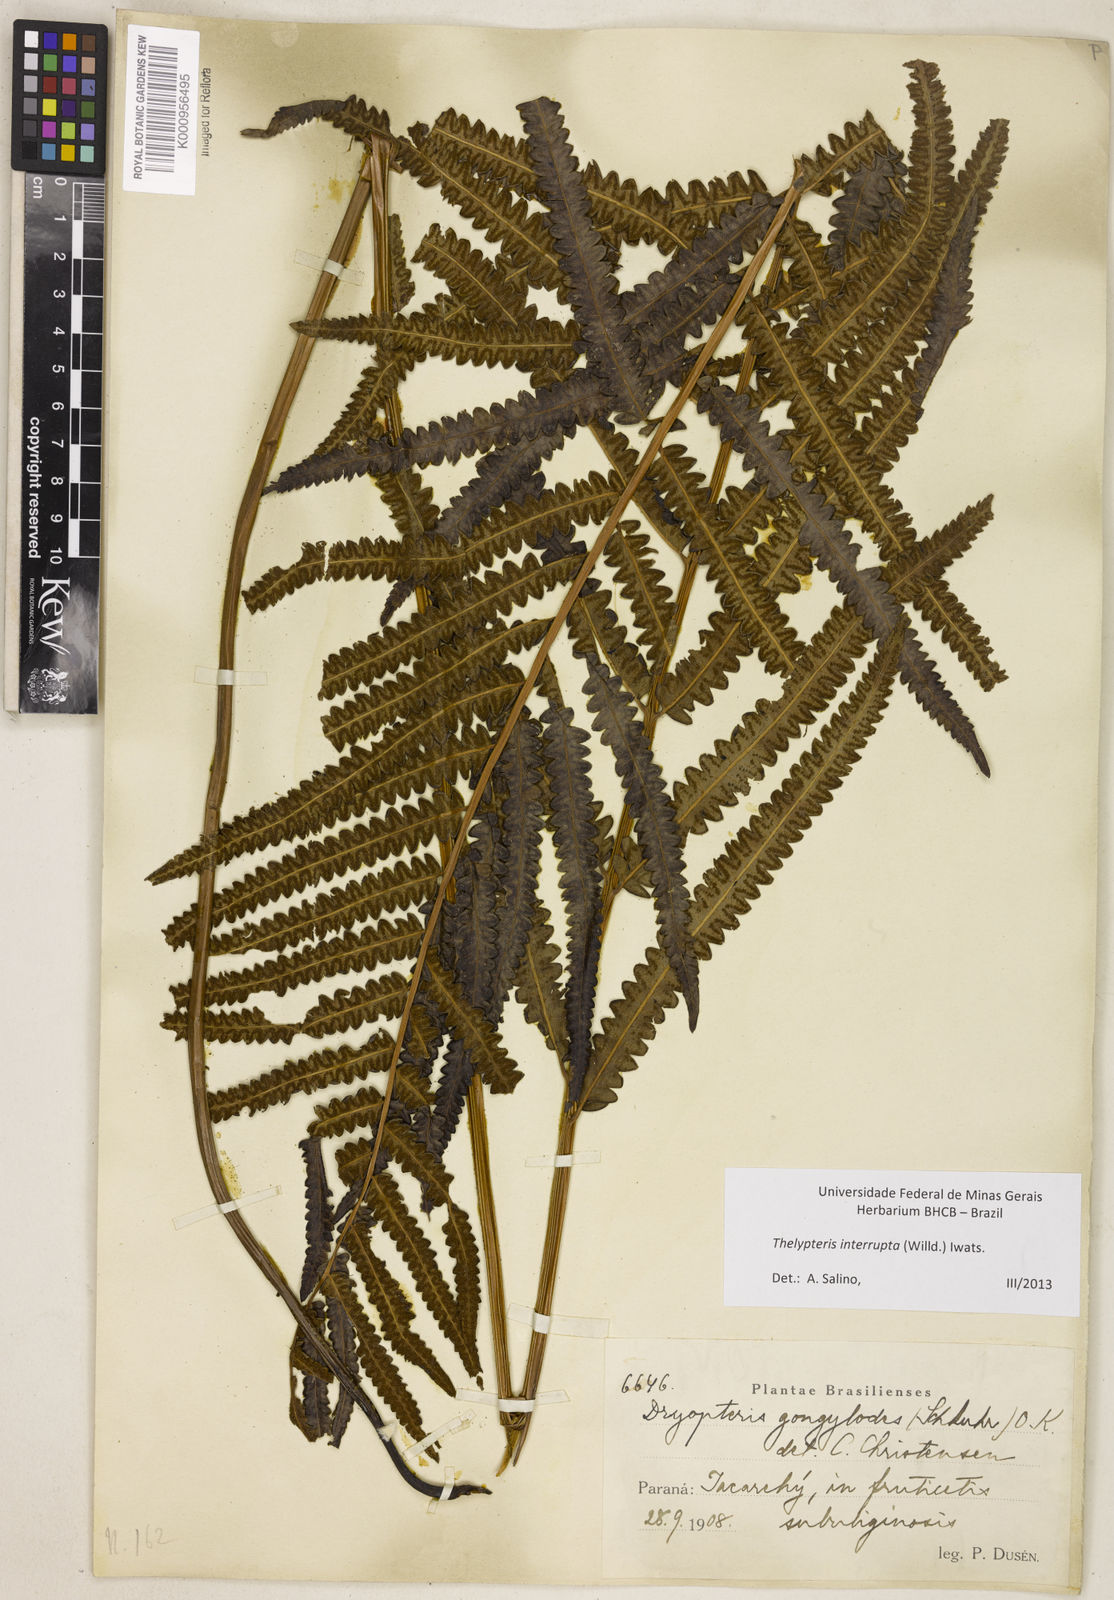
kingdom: Plantae
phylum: Tracheophyta
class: Polypodiopsida
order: Polypodiales
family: Thelypteridaceae
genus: Cyclosorus
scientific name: Cyclosorus interruptus
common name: Neke fern
